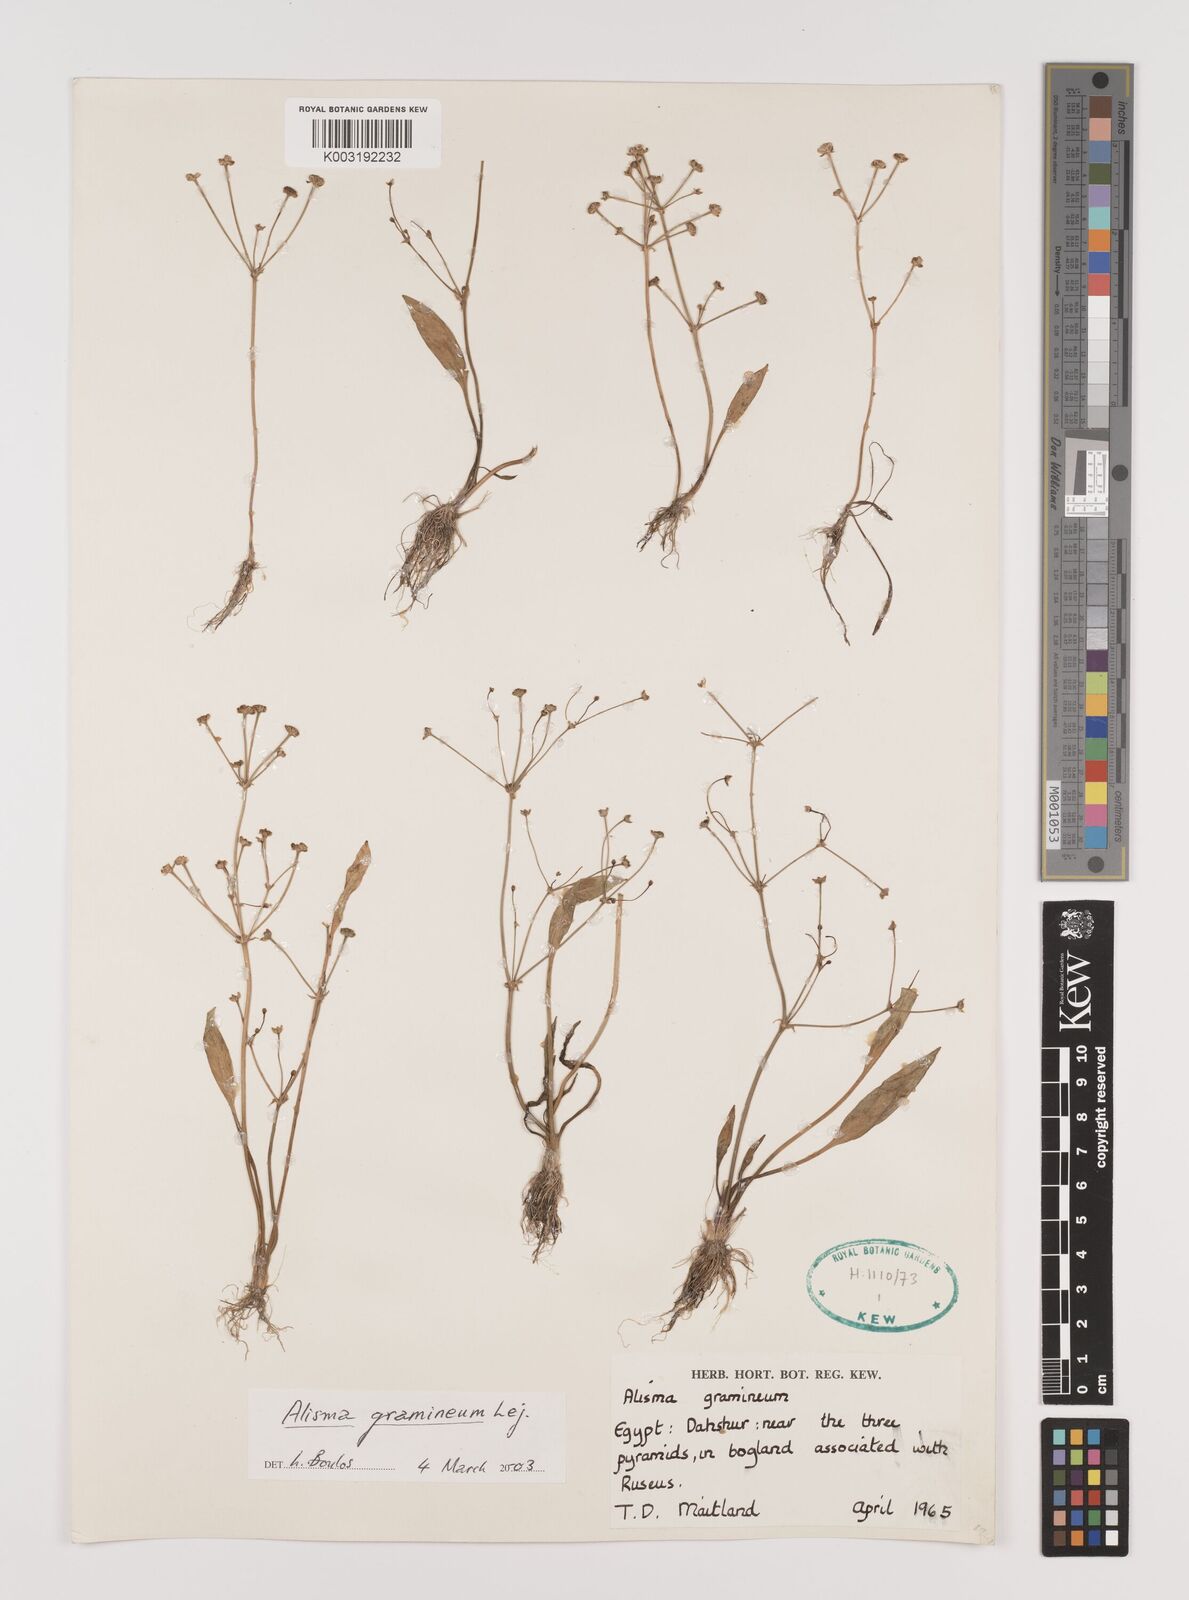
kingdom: Plantae
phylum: Tracheophyta
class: Liliopsida
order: Alismatales
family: Alismataceae
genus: Alisma
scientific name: Alisma gramineum
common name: Ribbon-leaved water-plantain
